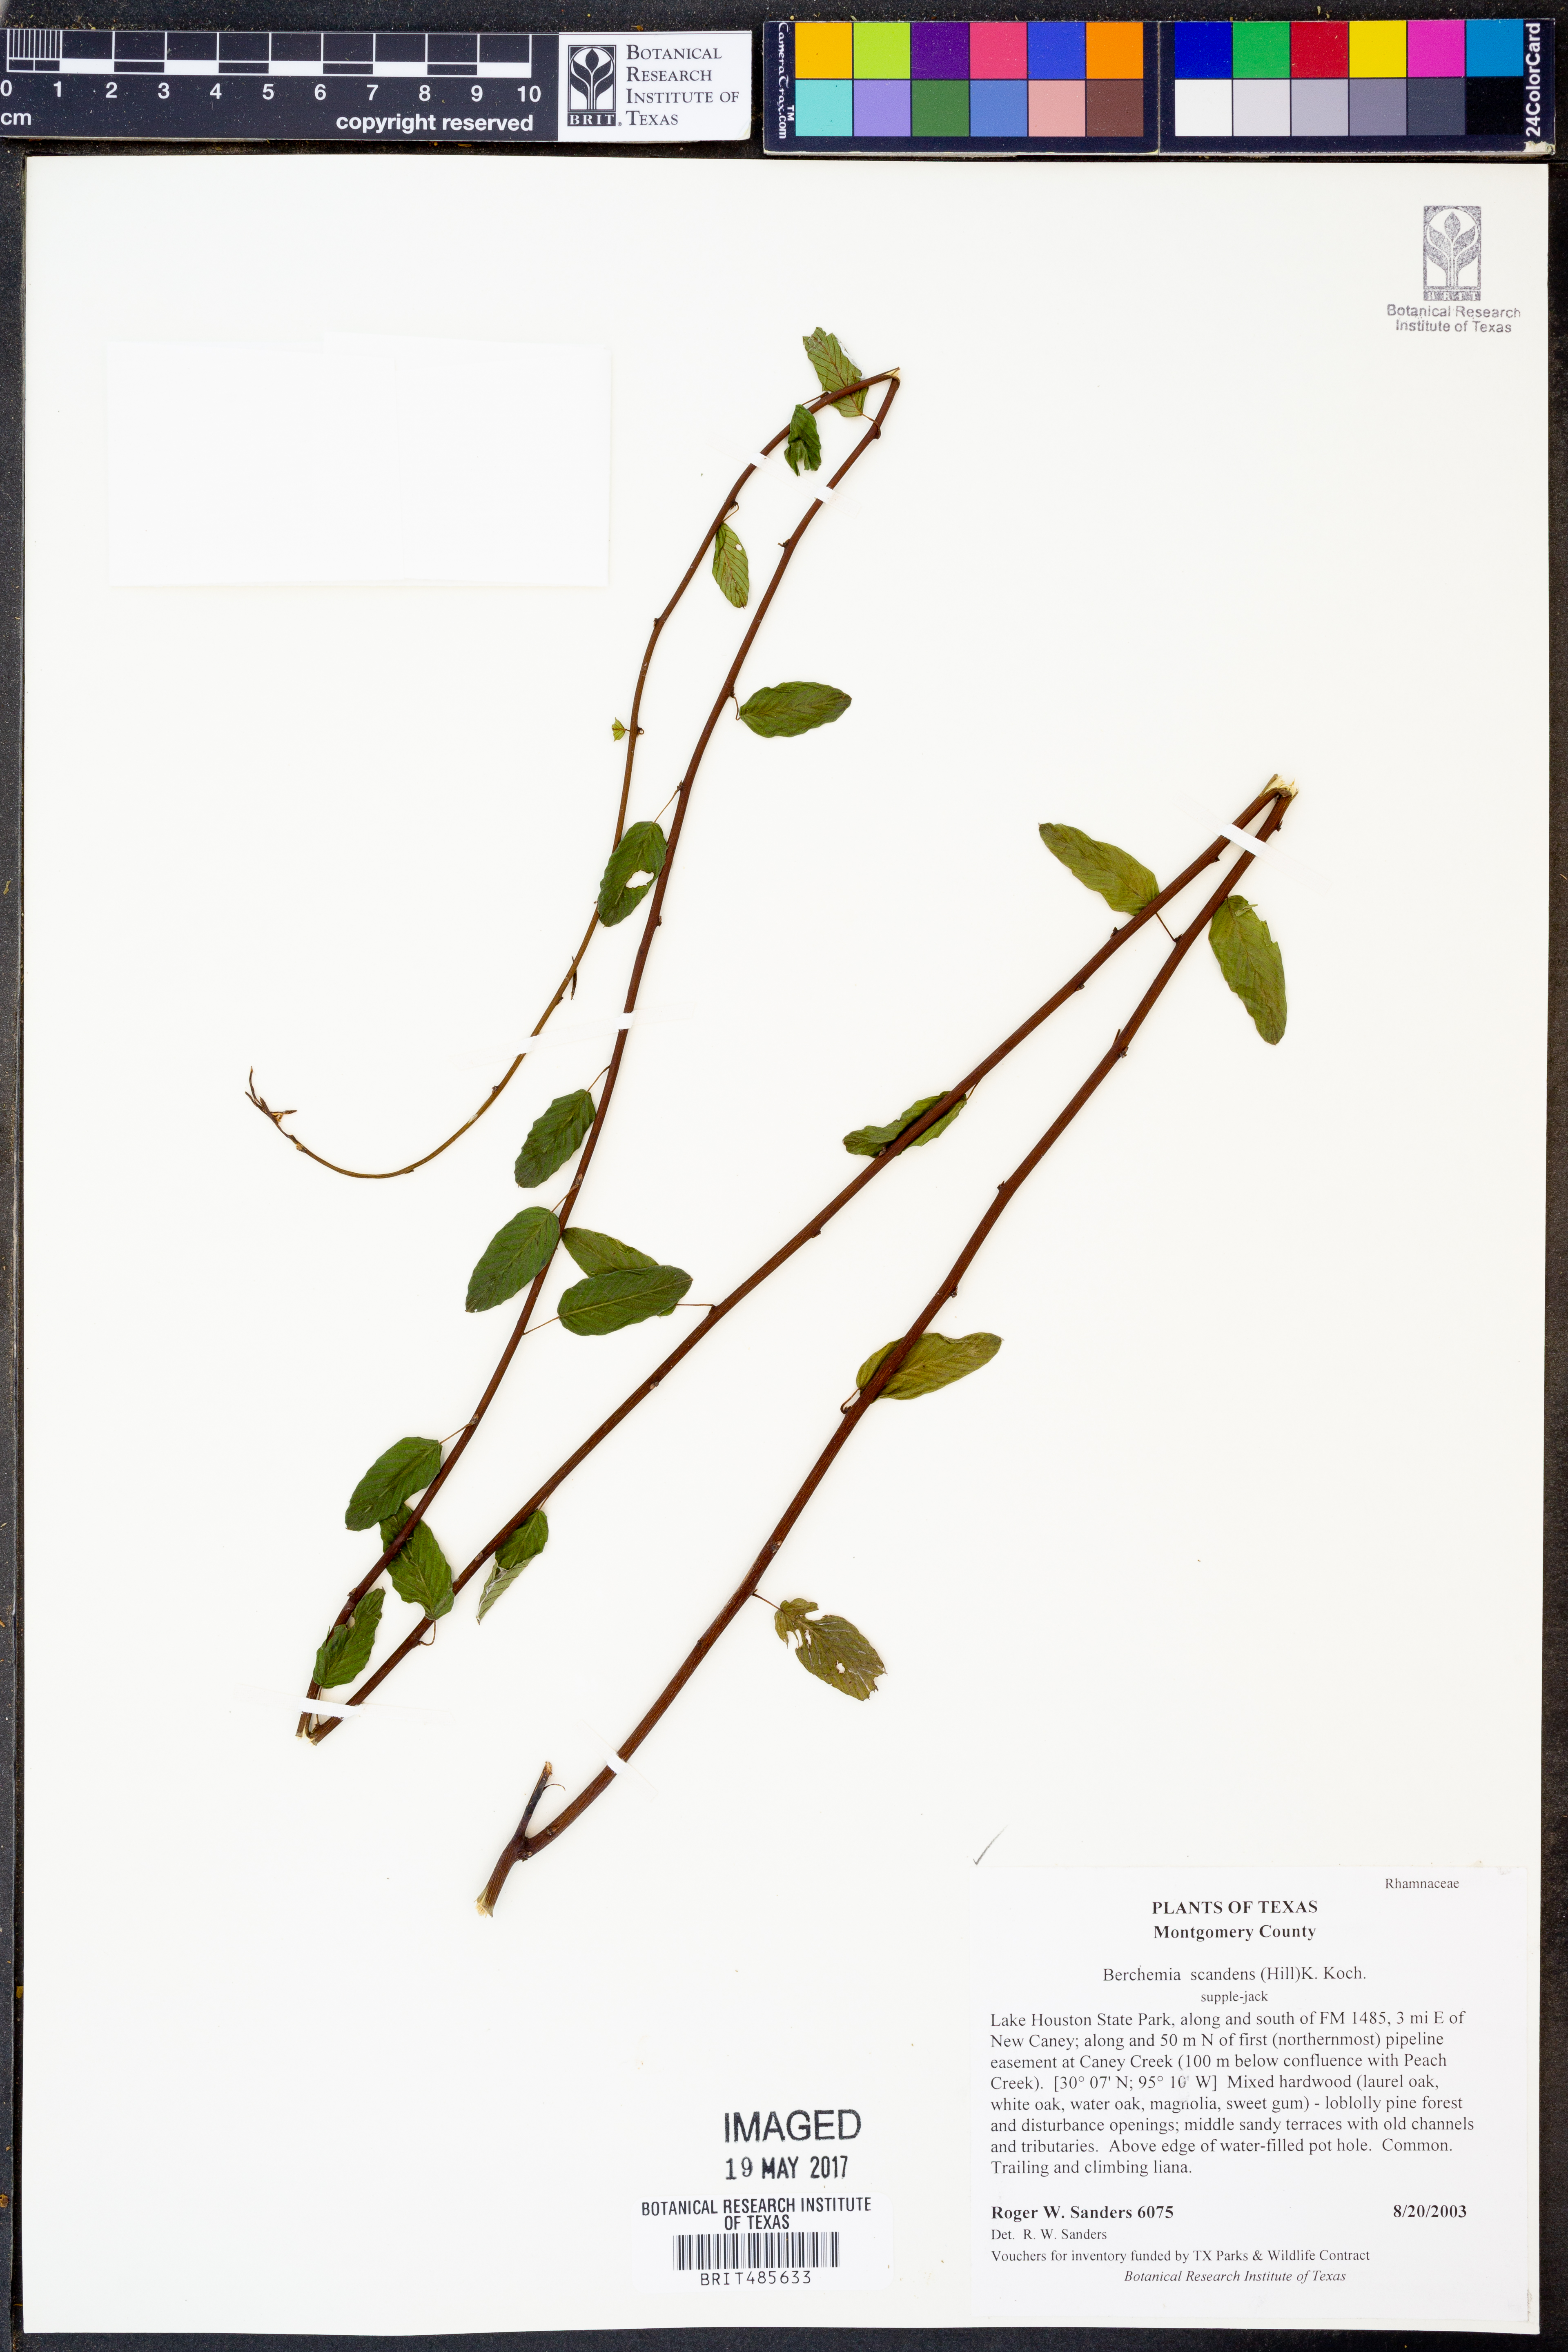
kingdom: Plantae
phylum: Tracheophyta
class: Magnoliopsida
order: Rosales
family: Rhamnaceae
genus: Berchemia
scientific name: Berchemia scandens
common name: Supplejack
